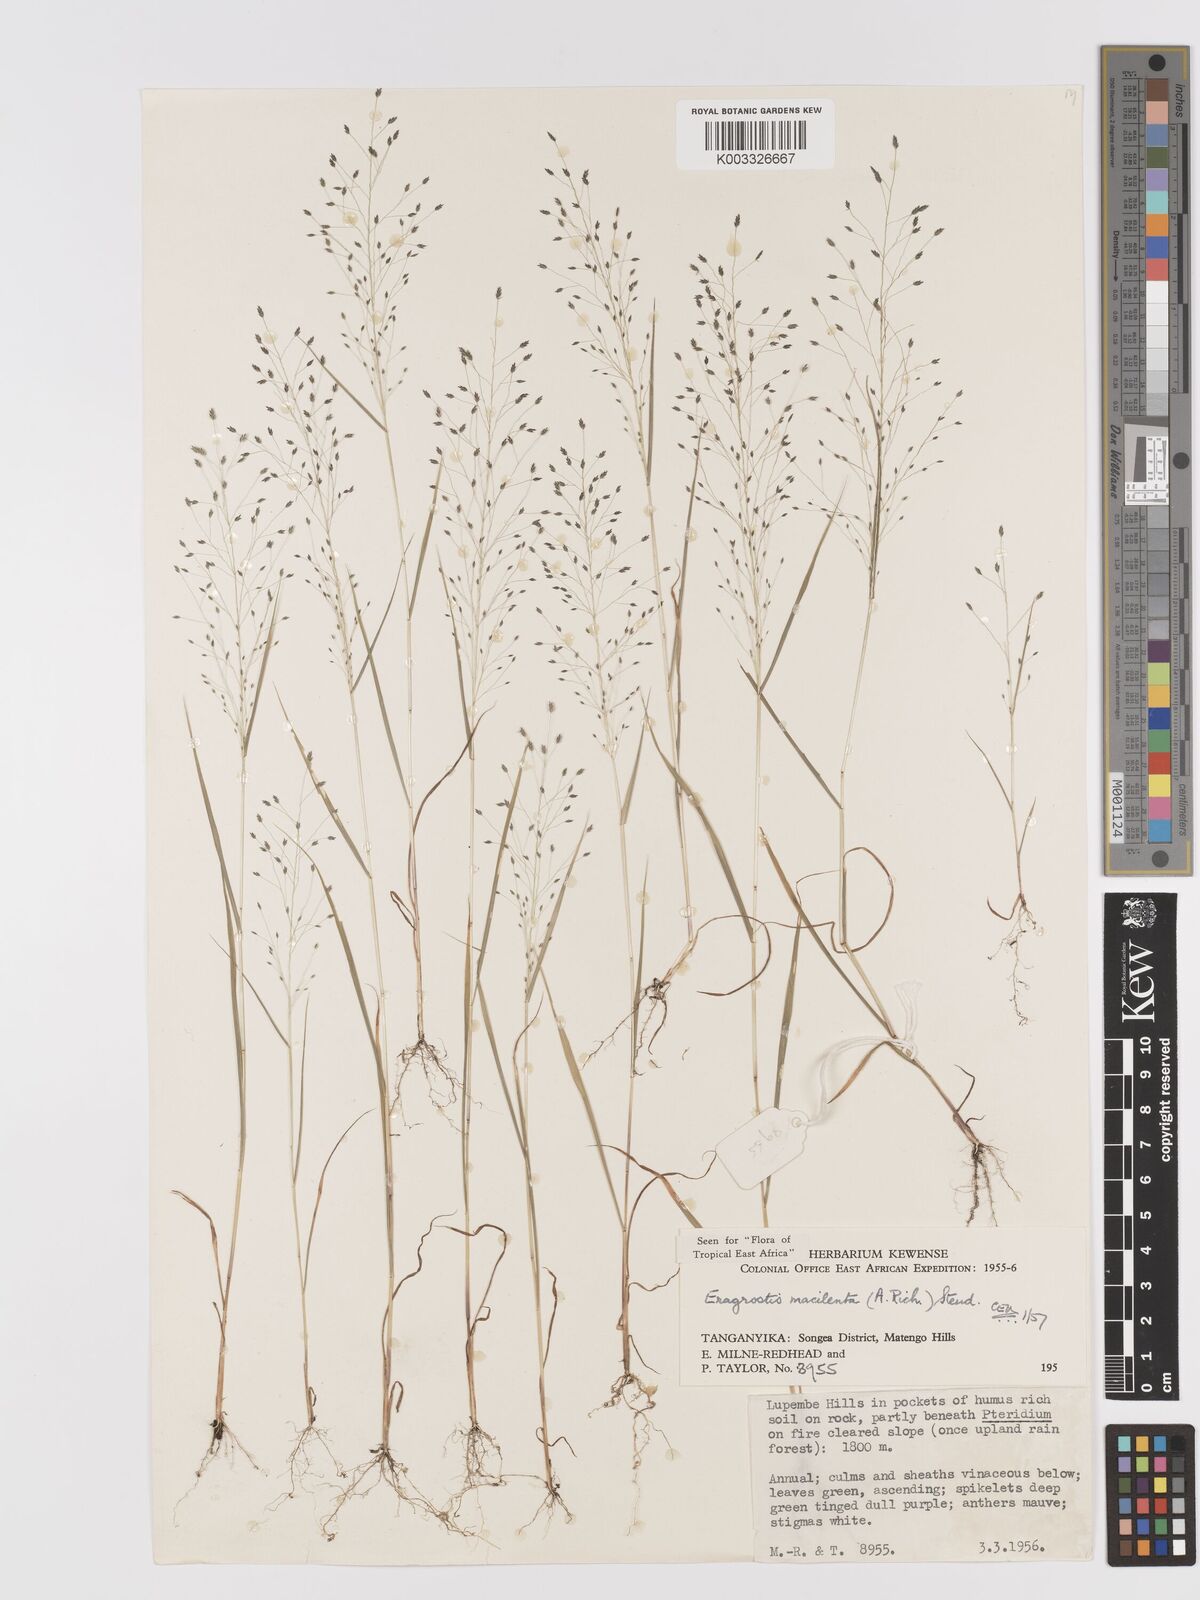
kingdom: Plantae
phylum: Tracheophyta
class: Liliopsida
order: Poales
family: Poaceae
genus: Eragrostis
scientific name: Eragrostis macilenta
